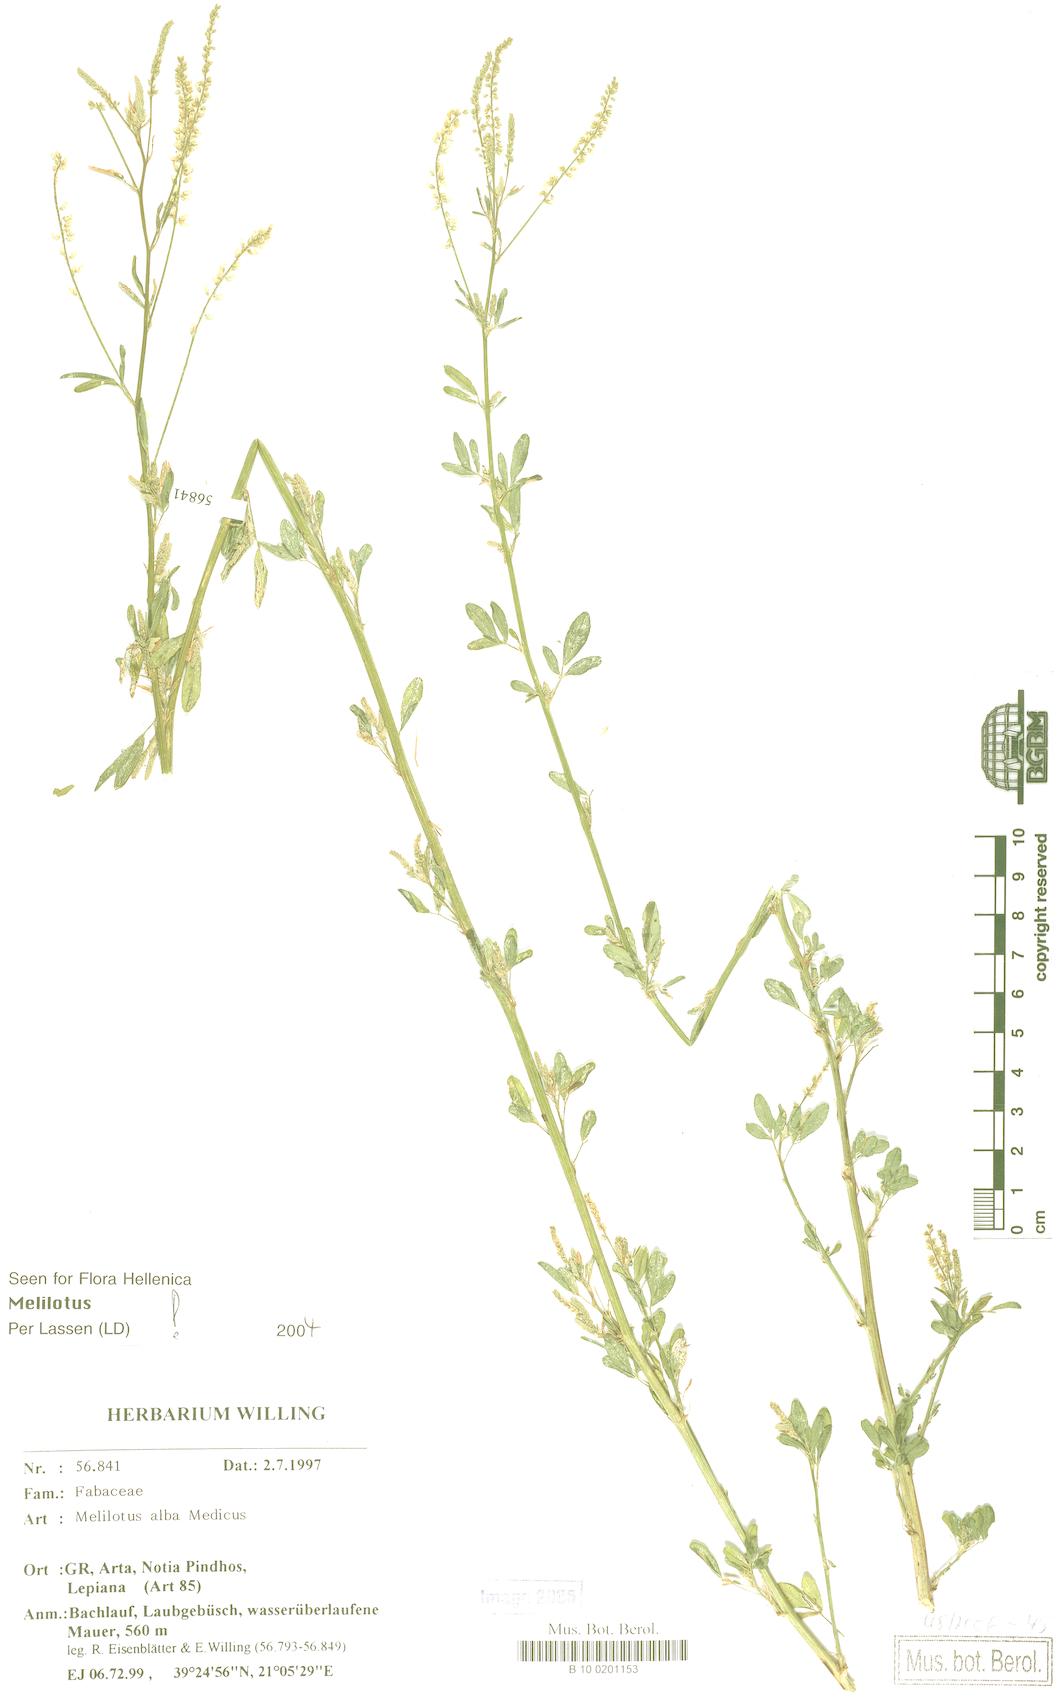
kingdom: Plantae
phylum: Tracheophyta
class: Magnoliopsida
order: Fabales
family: Fabaceae
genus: Melilotus
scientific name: Melilotus albus
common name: White melilot
